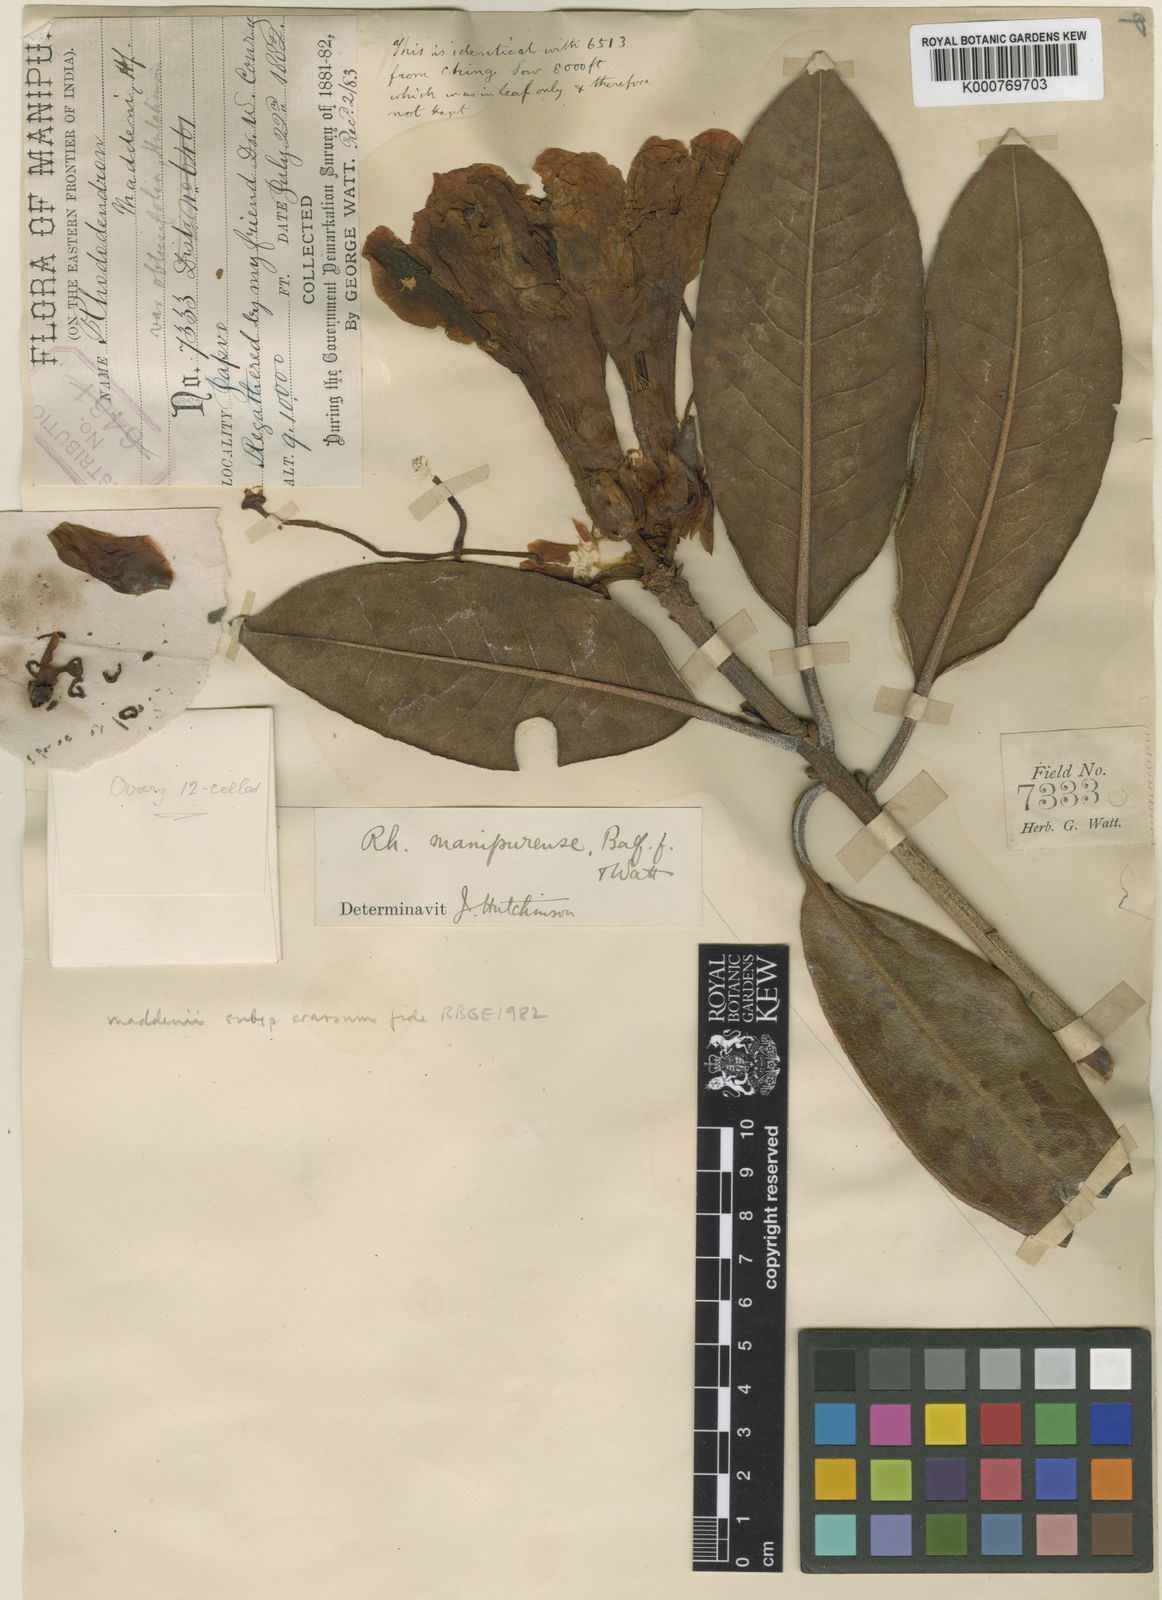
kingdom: Plantae
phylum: Tracheophyta
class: Magnoliopsida
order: Ericales
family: Ericaceae
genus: Rhododendron
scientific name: Rhododendron crassum
